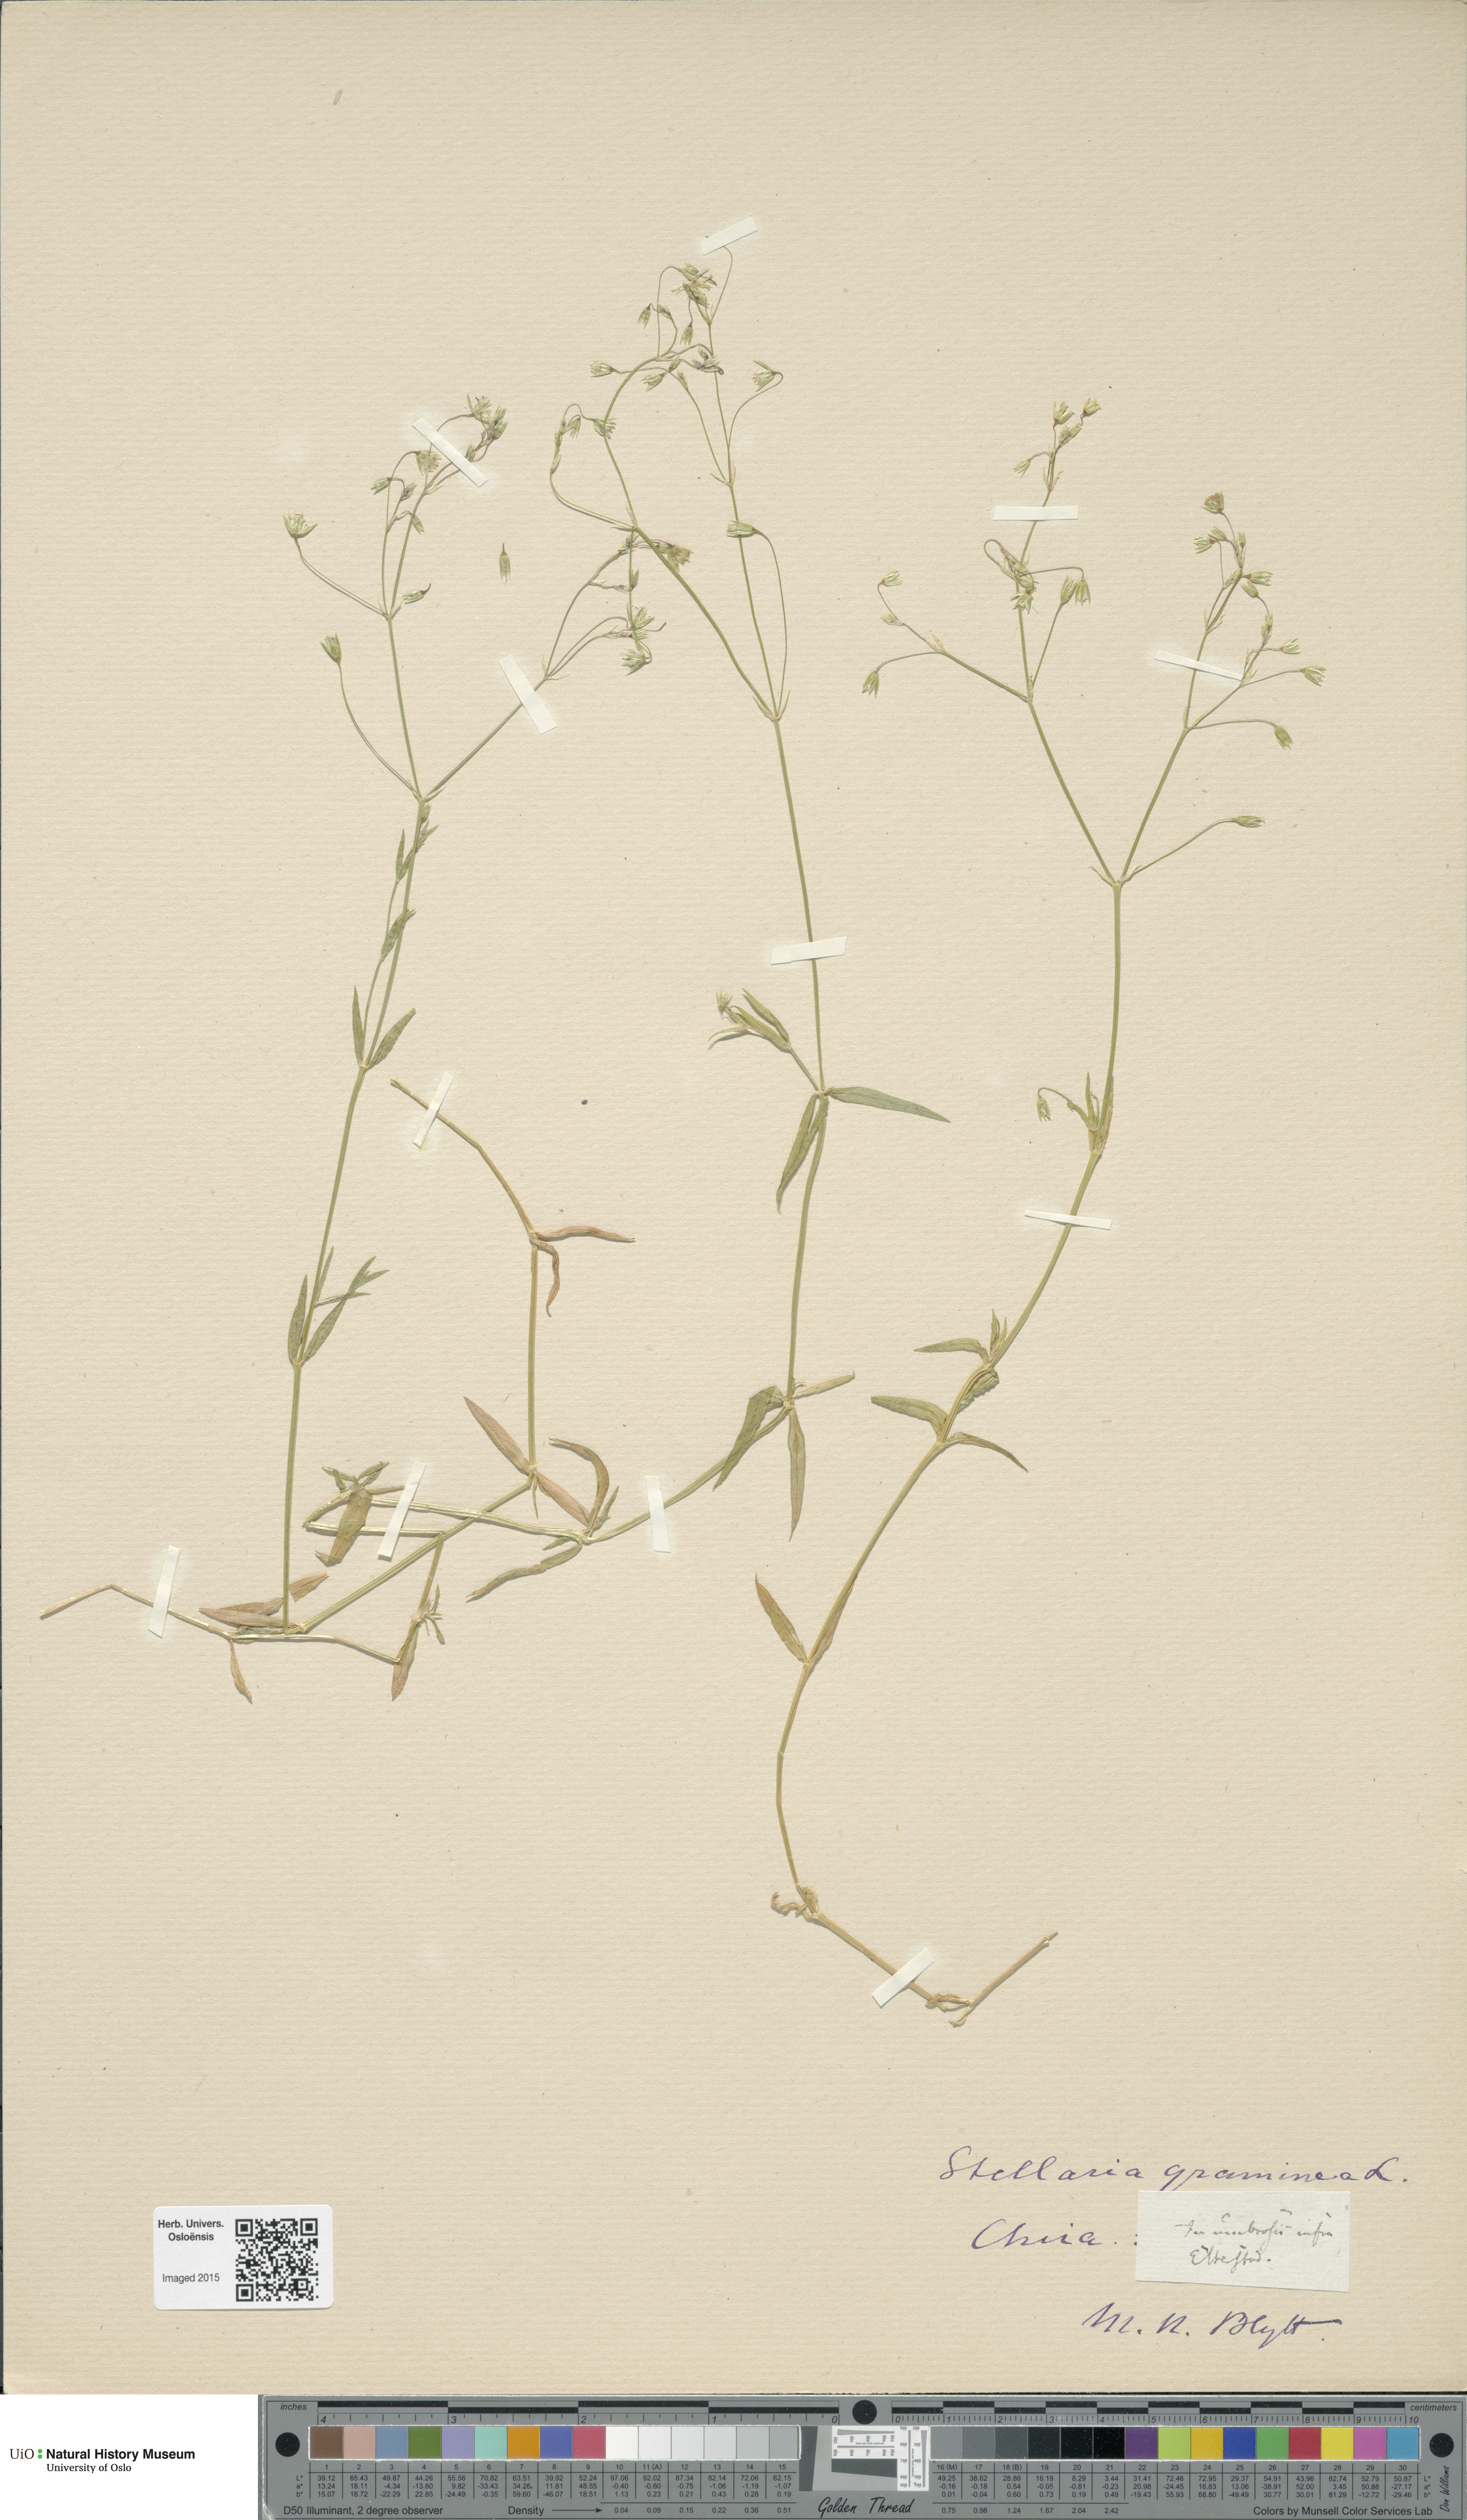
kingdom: Plantae
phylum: Tracheophyta
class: Magnoliopsida
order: Caryophyllales
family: Caryophyllaceae
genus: Stellaria
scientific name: Stellaria graminea
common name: Grass-like starwort
